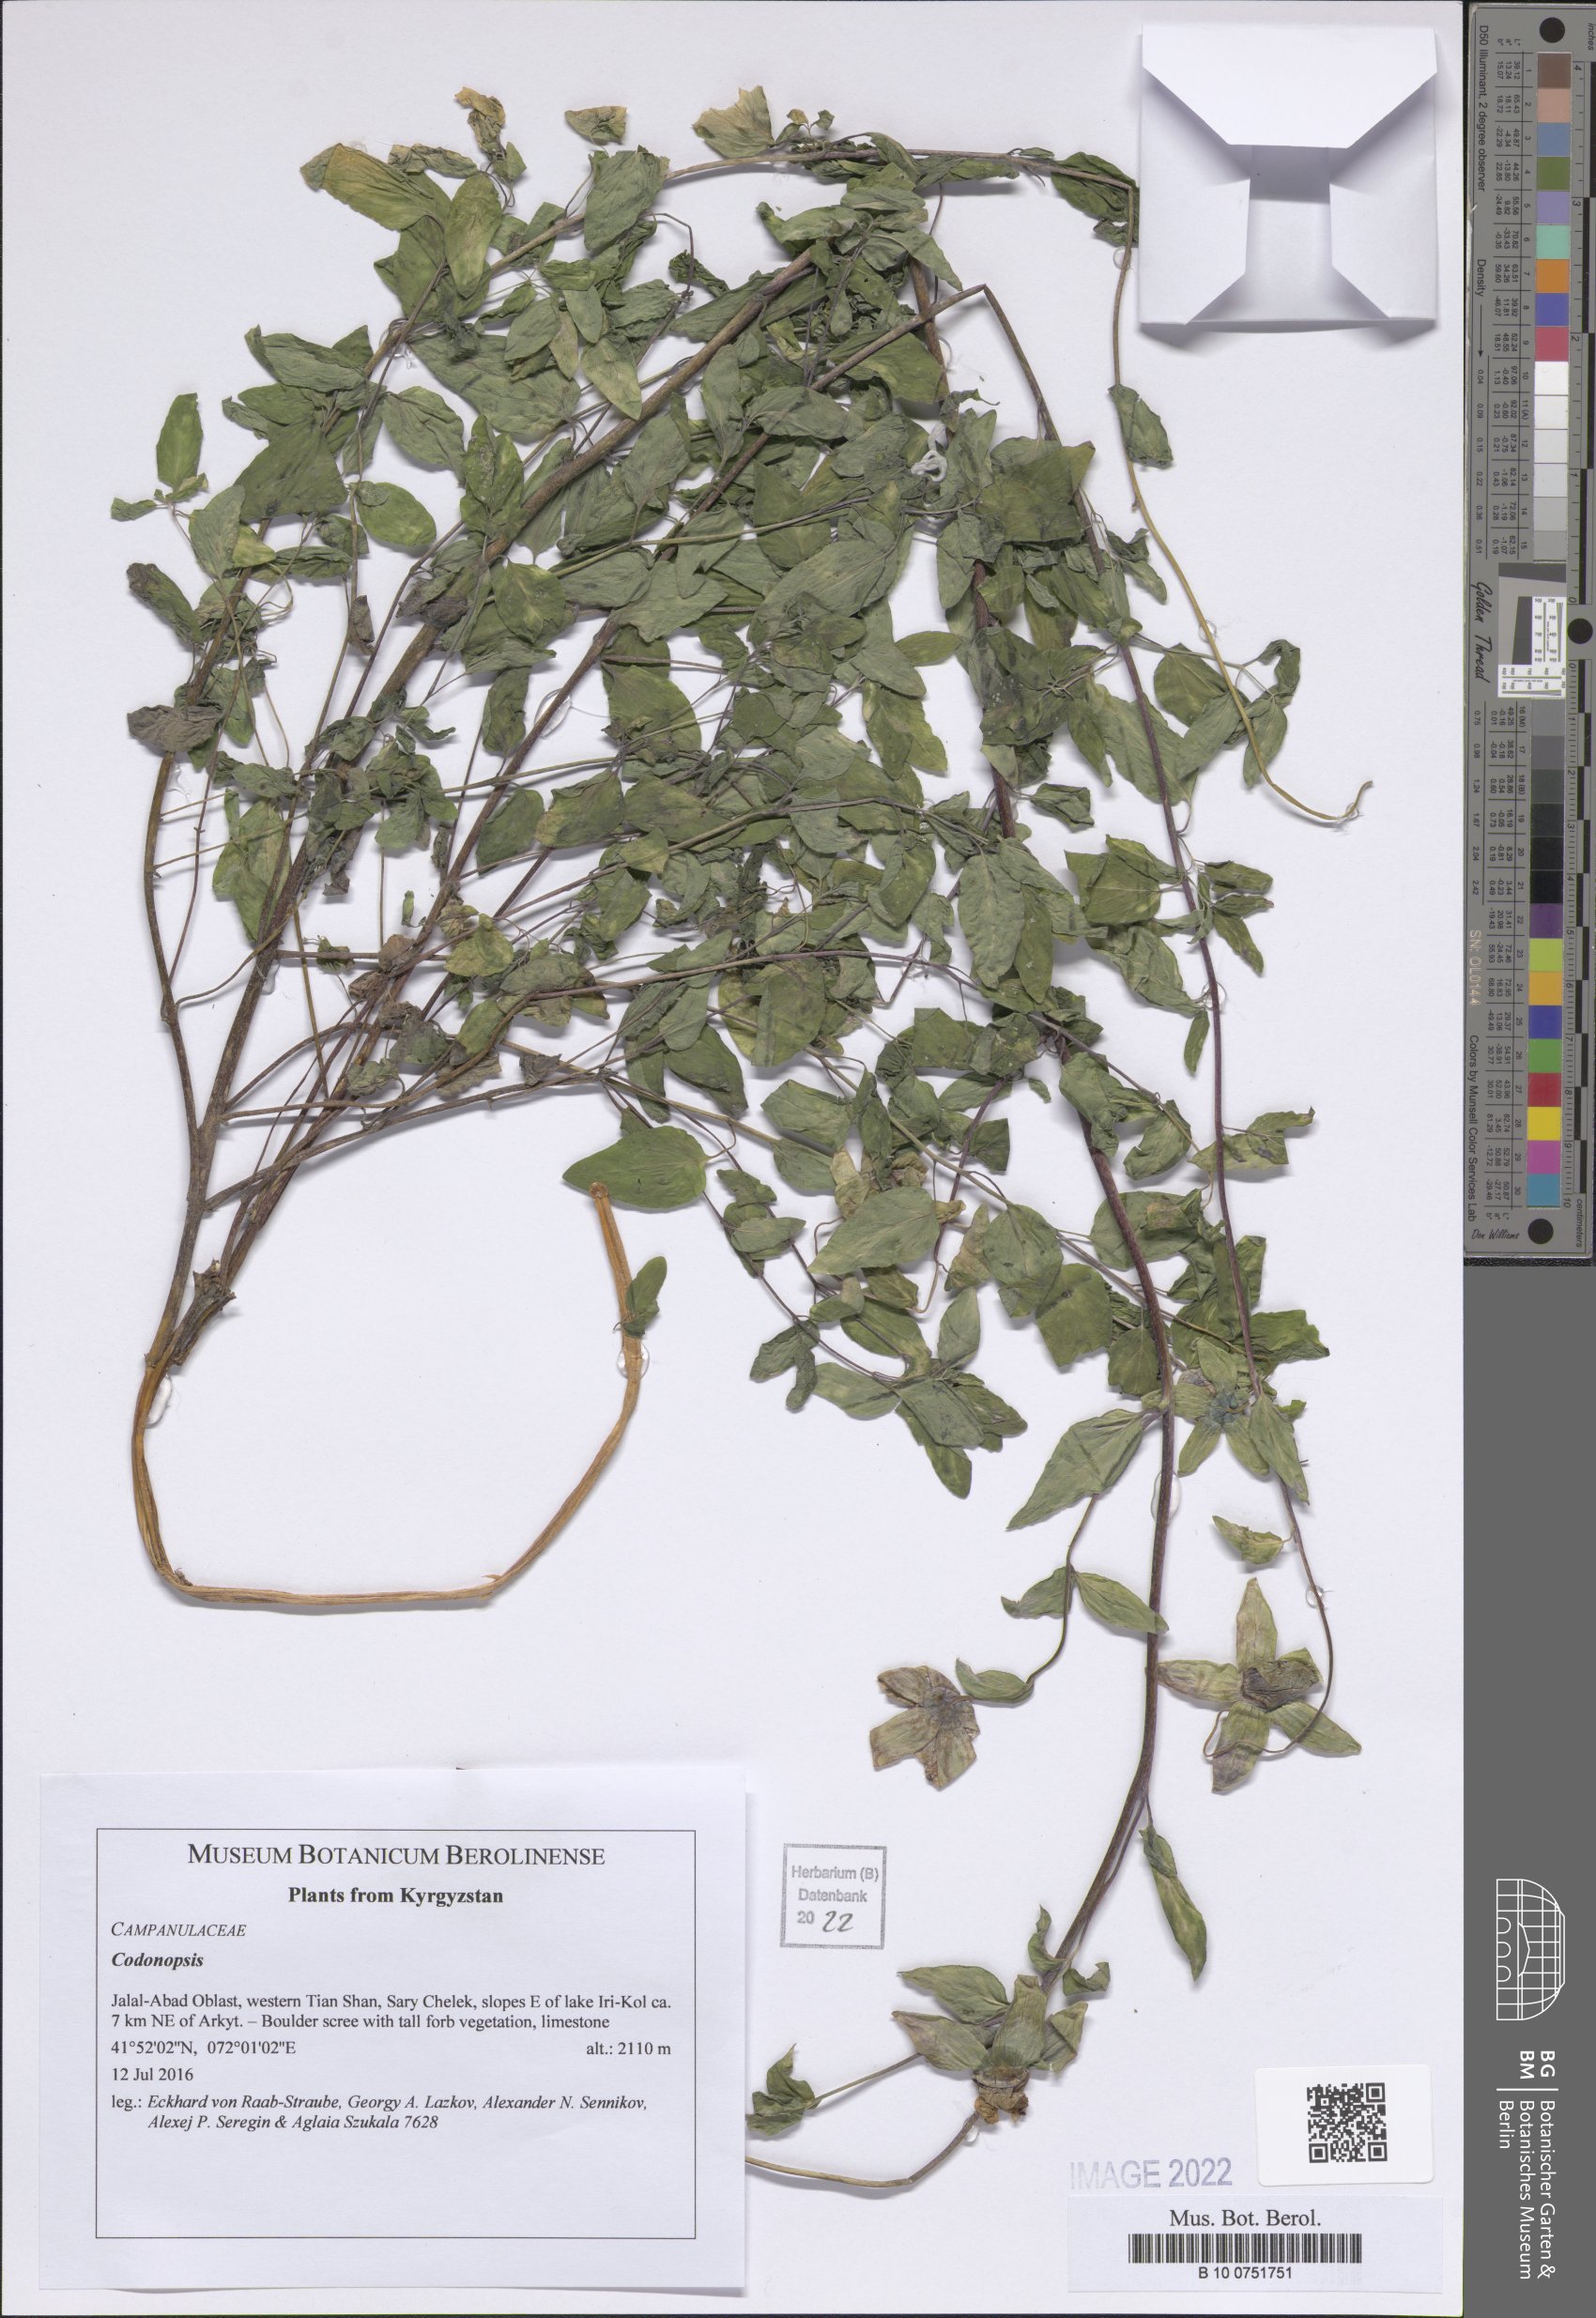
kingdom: Plantae
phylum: Tracheophyta
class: Magnoliopsida
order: Asterales
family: Campanulaceae
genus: Codonopsis
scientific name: Codonopsis
